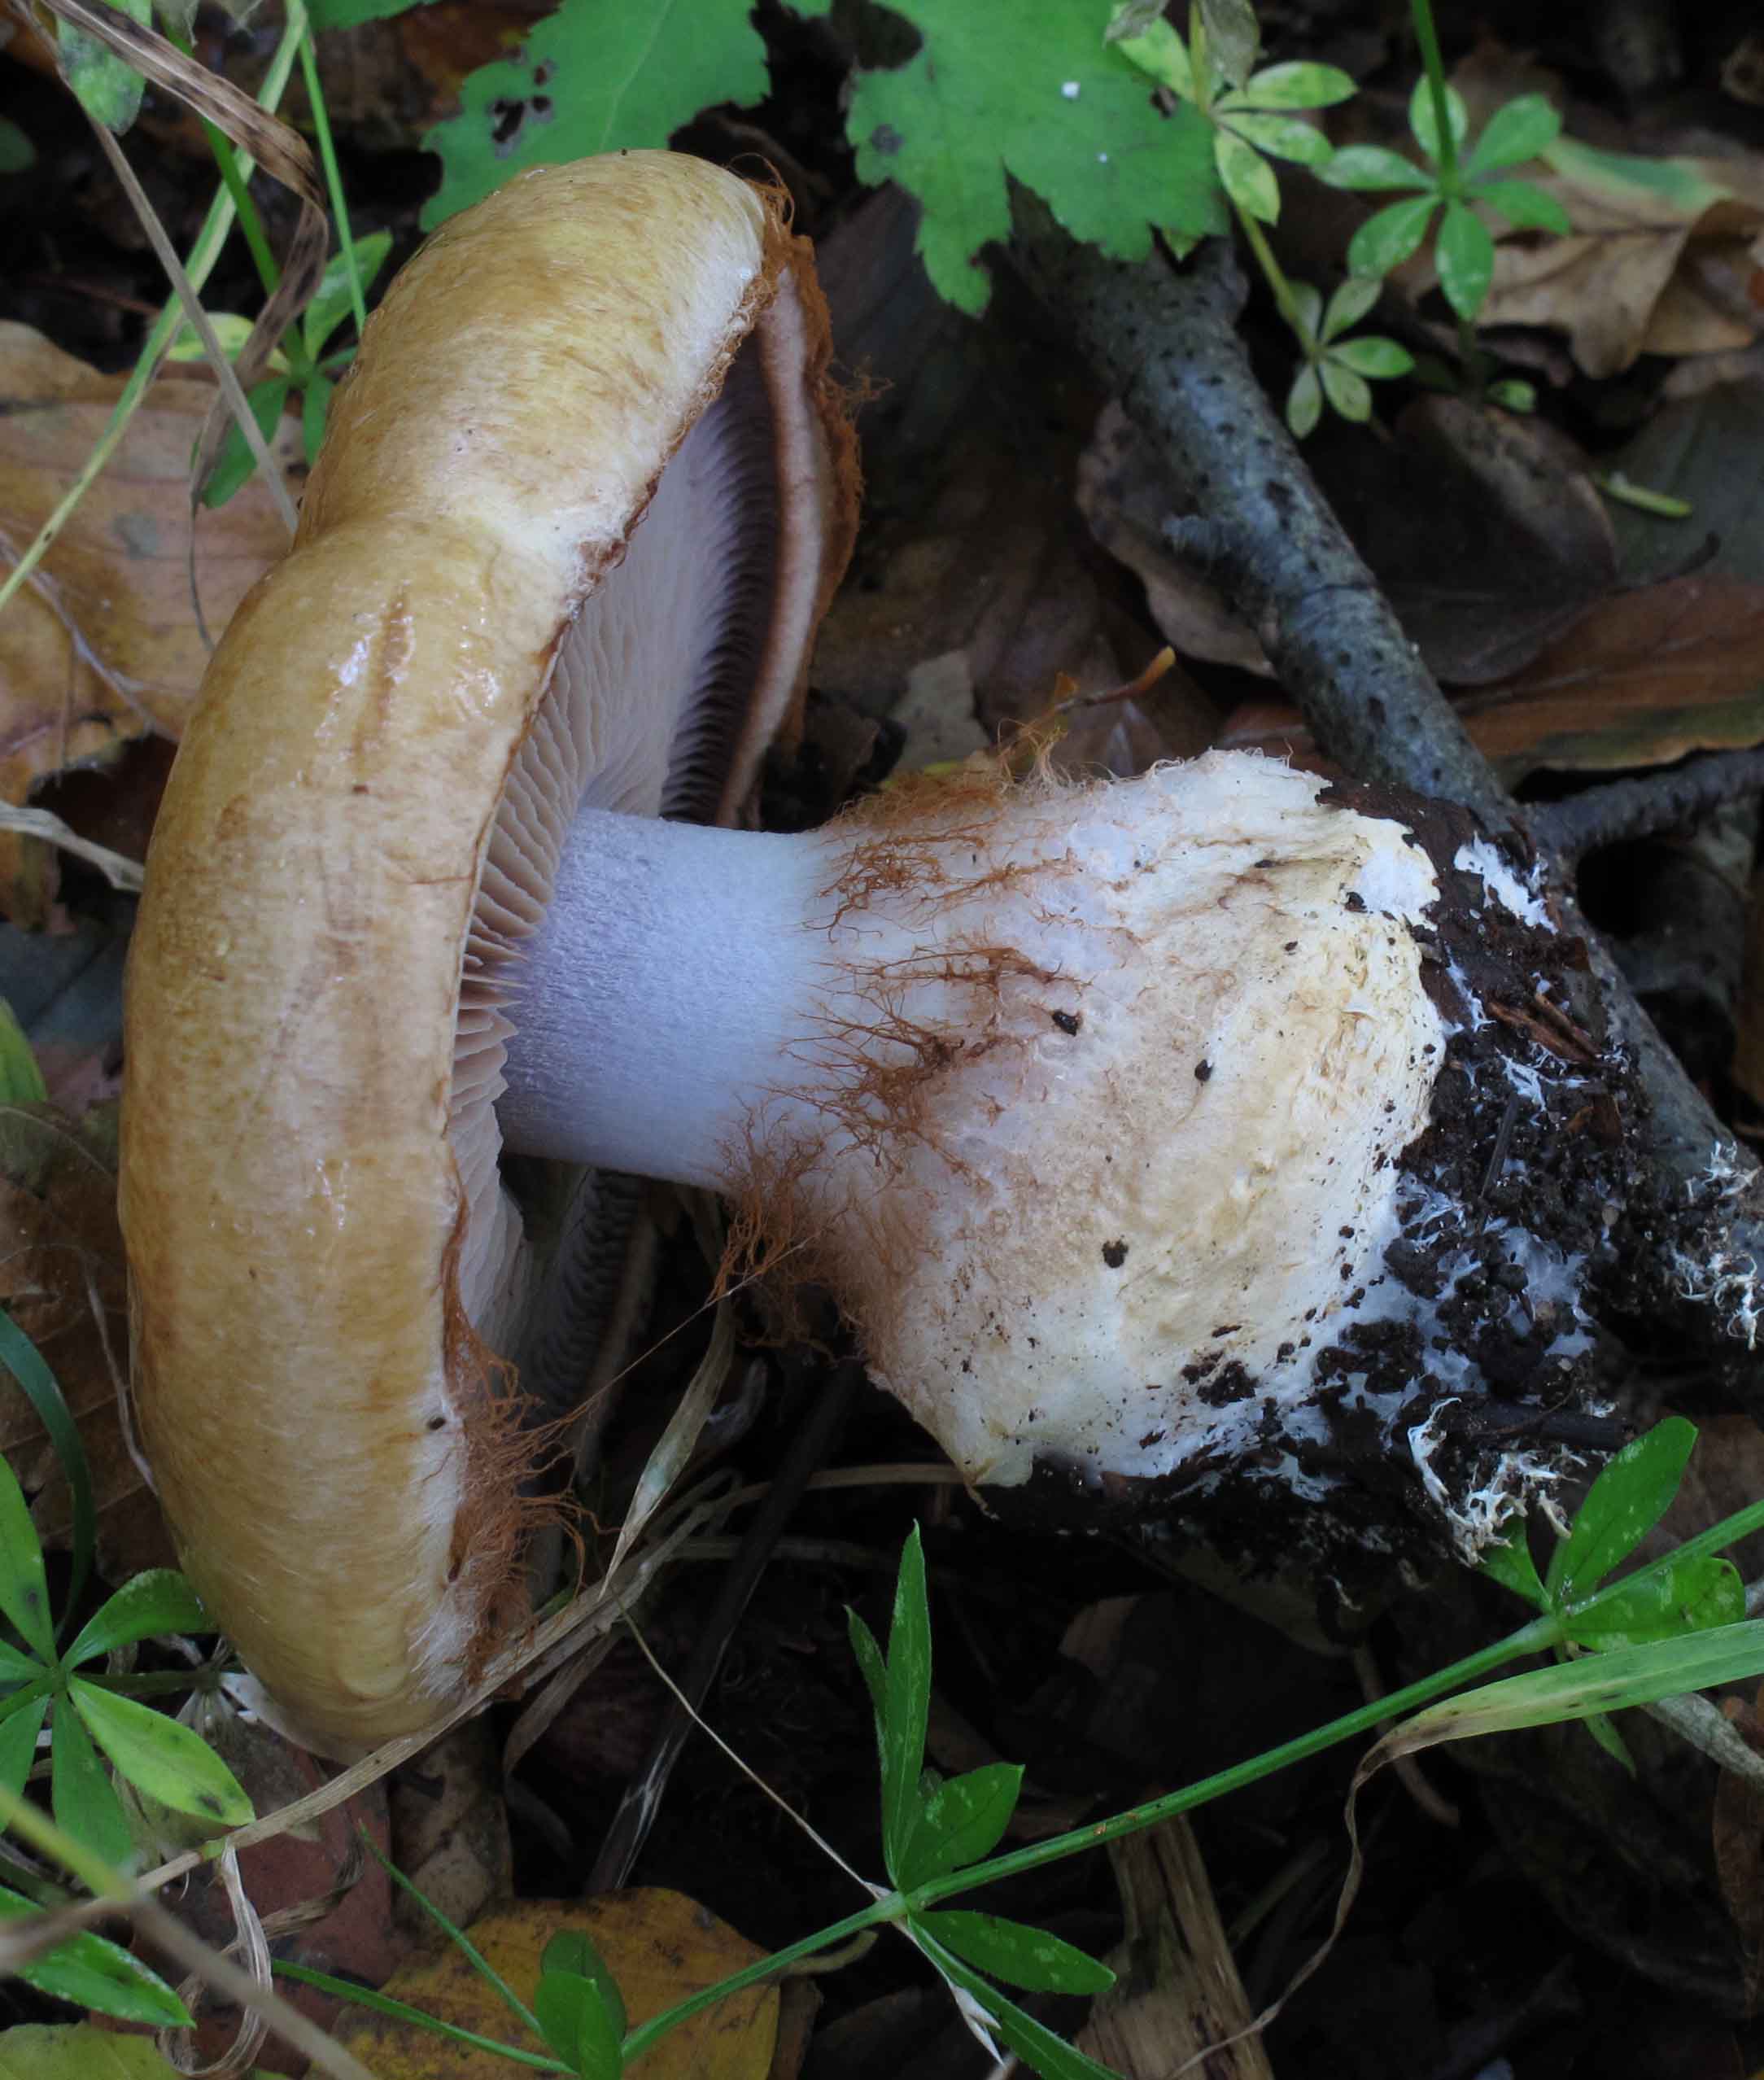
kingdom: Fungi
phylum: Basidiomycota
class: Agaricomycetes
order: Agaricales
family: Cortinariaceae
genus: Cortinarius
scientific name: Cortinarius anserinus
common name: bøge-slørhat
